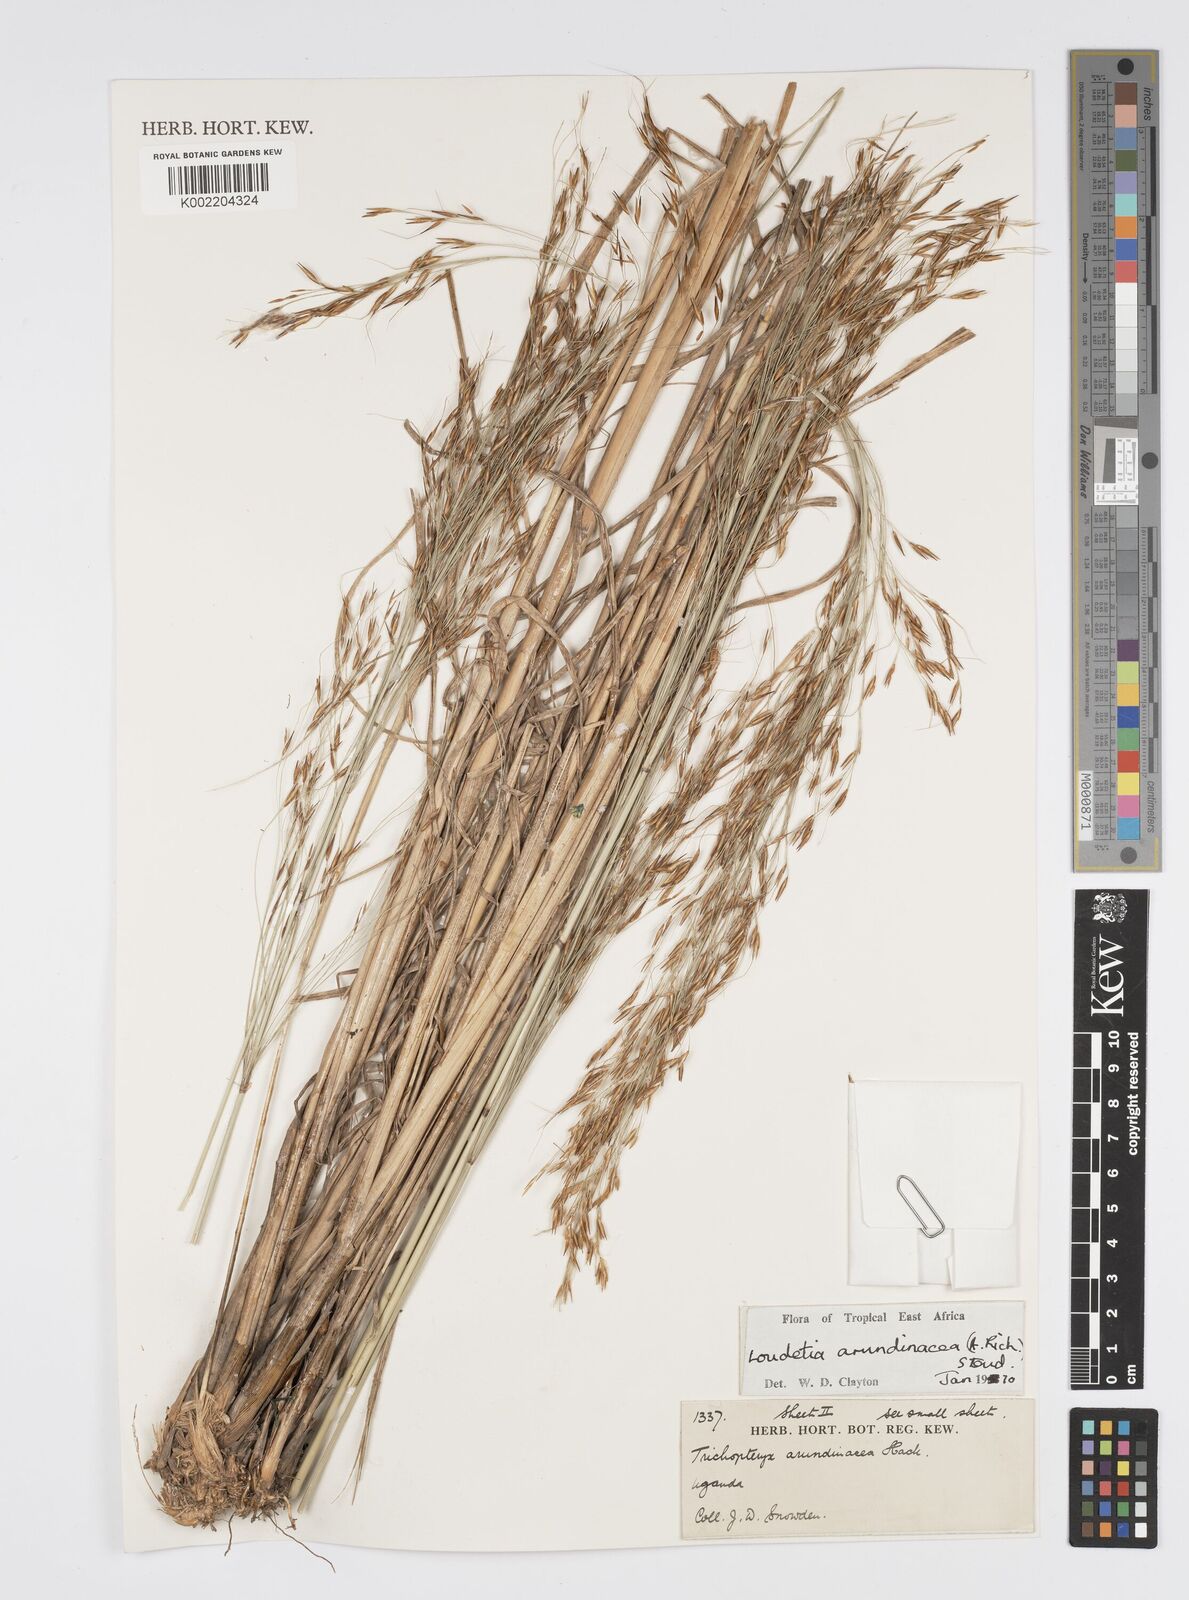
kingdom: Plantae
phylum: Tracheophyta
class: Liliopsida
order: Poales
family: Poaceae
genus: Loudetia
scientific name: Loudetia arundinacea
